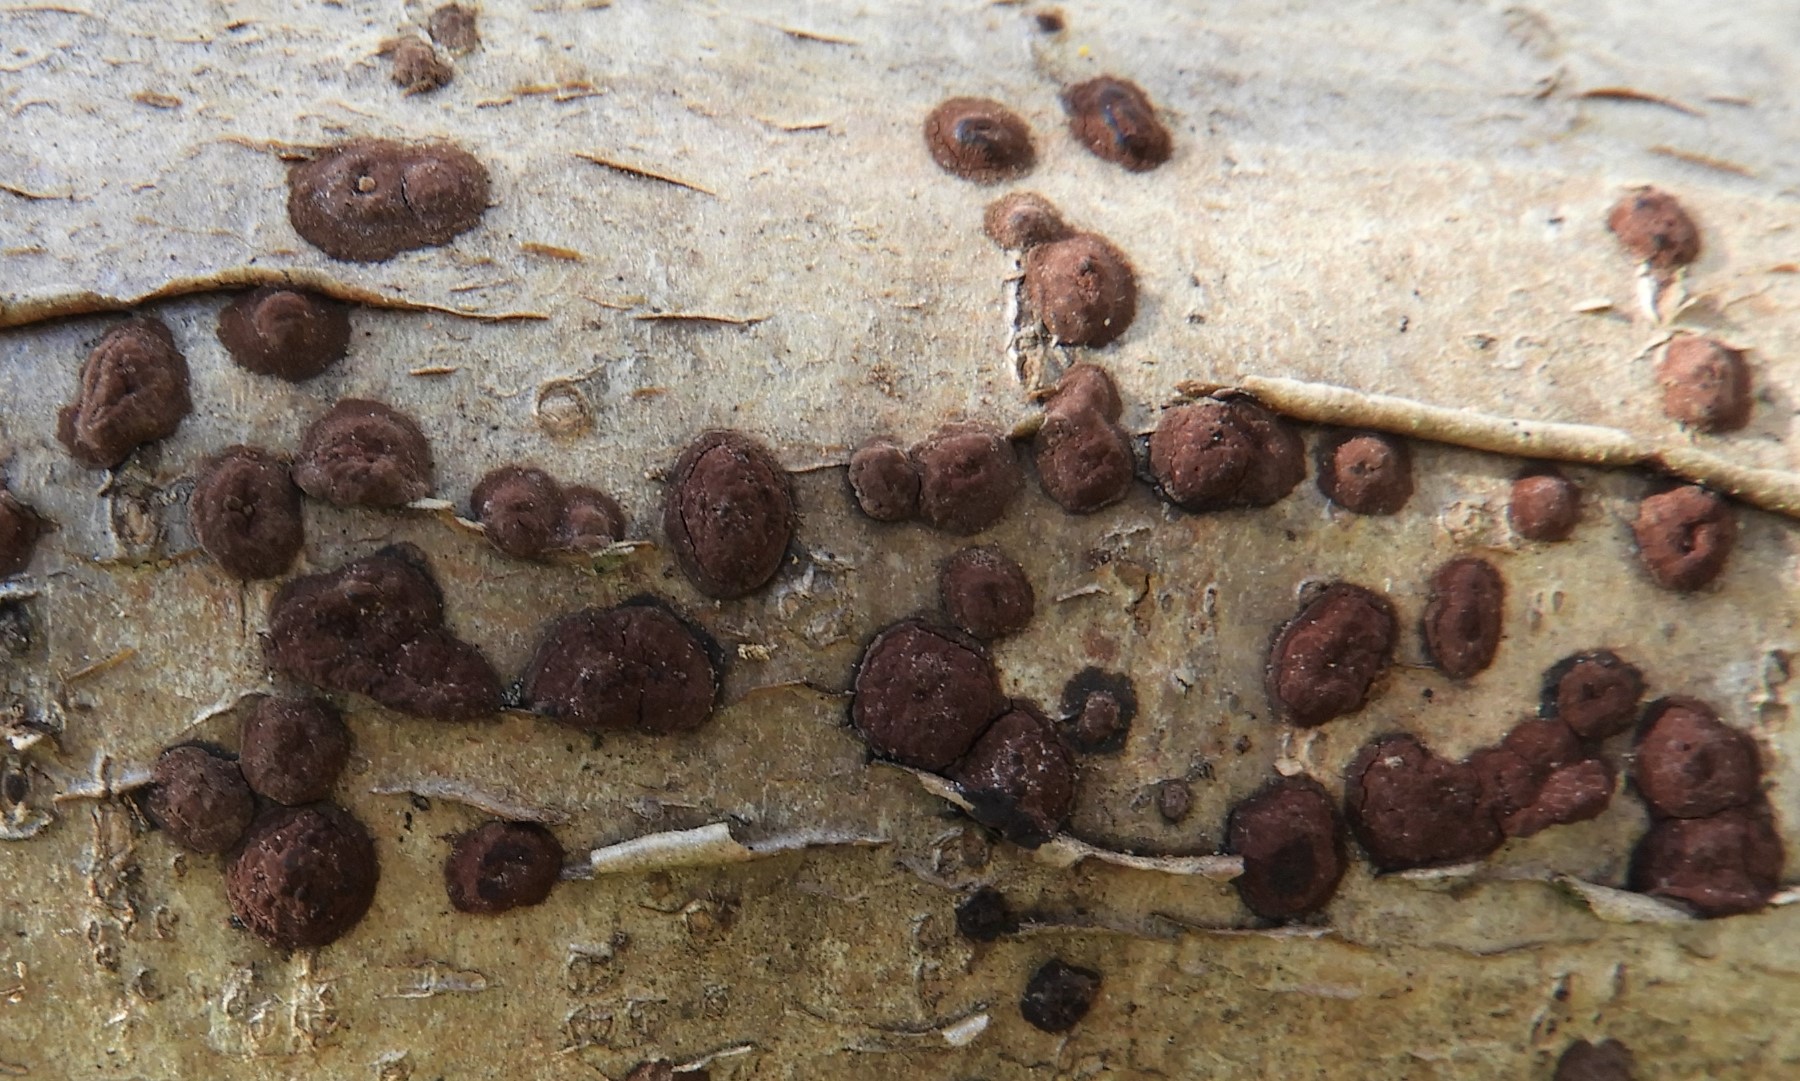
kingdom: Fungi
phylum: Ascomycota
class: Sordariomycetes
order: Xylariales
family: Hypoxylaceae
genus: Hypoxylon
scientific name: Hypoxylon fuscum
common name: kegleformet kulbær
